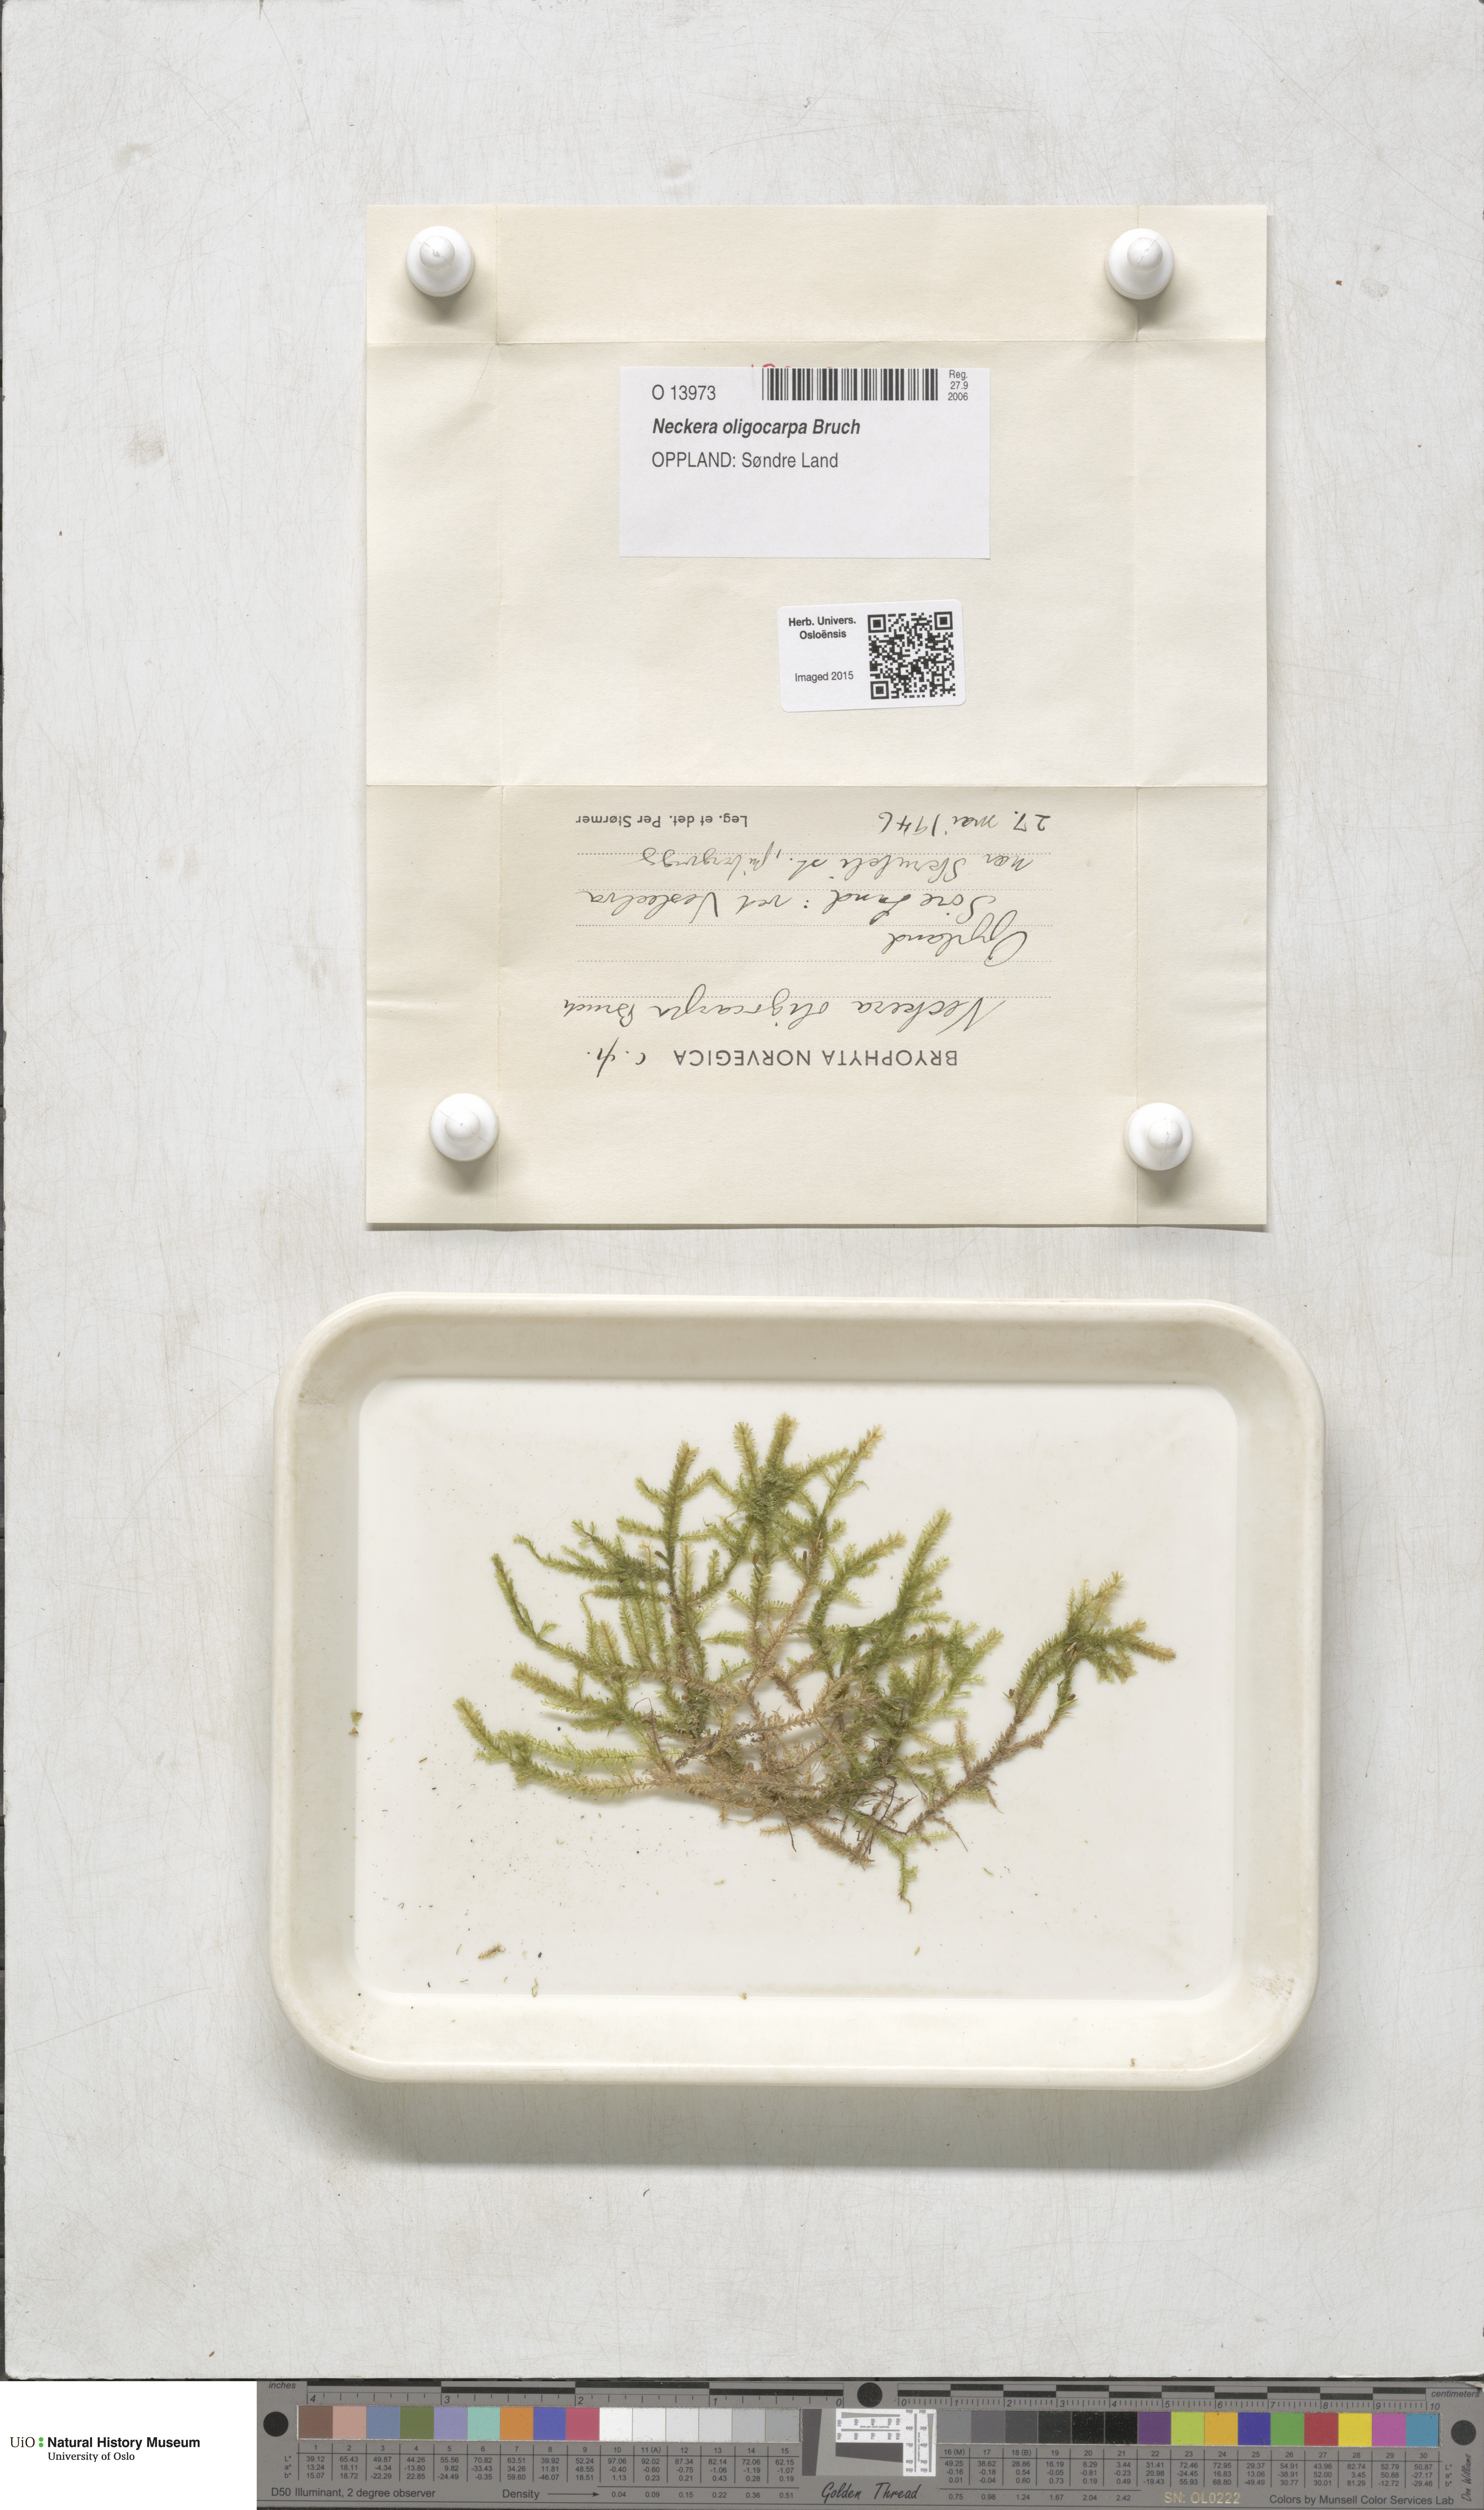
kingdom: Plantae
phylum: Bryophyta
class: Bryopsida
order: Hypnales
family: Neckeraceae
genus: Neckera
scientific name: Neckera oligocarpa
